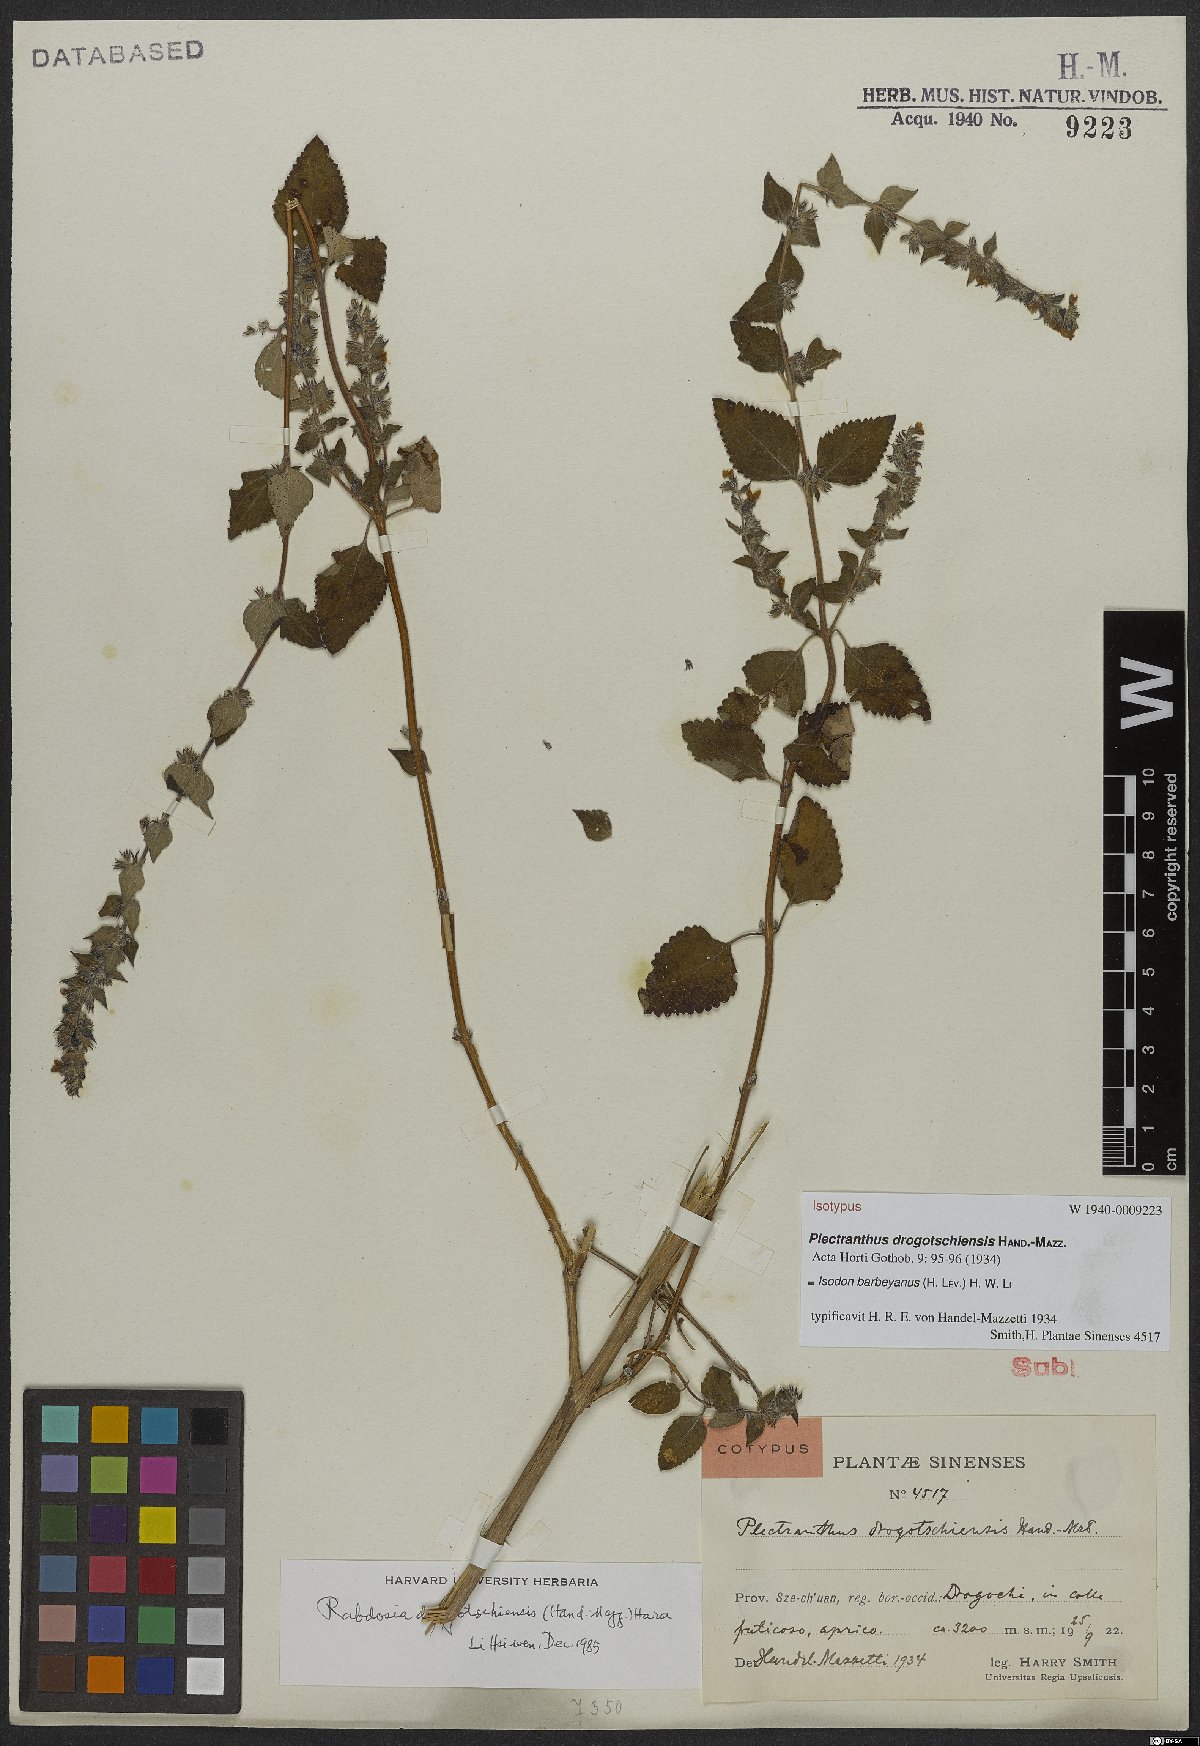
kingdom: Plantae
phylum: Tracheophyta
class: Magnoliopsida
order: Lamiales
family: Lamiaceae
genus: Isodon
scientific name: Isodon barbeyanus
